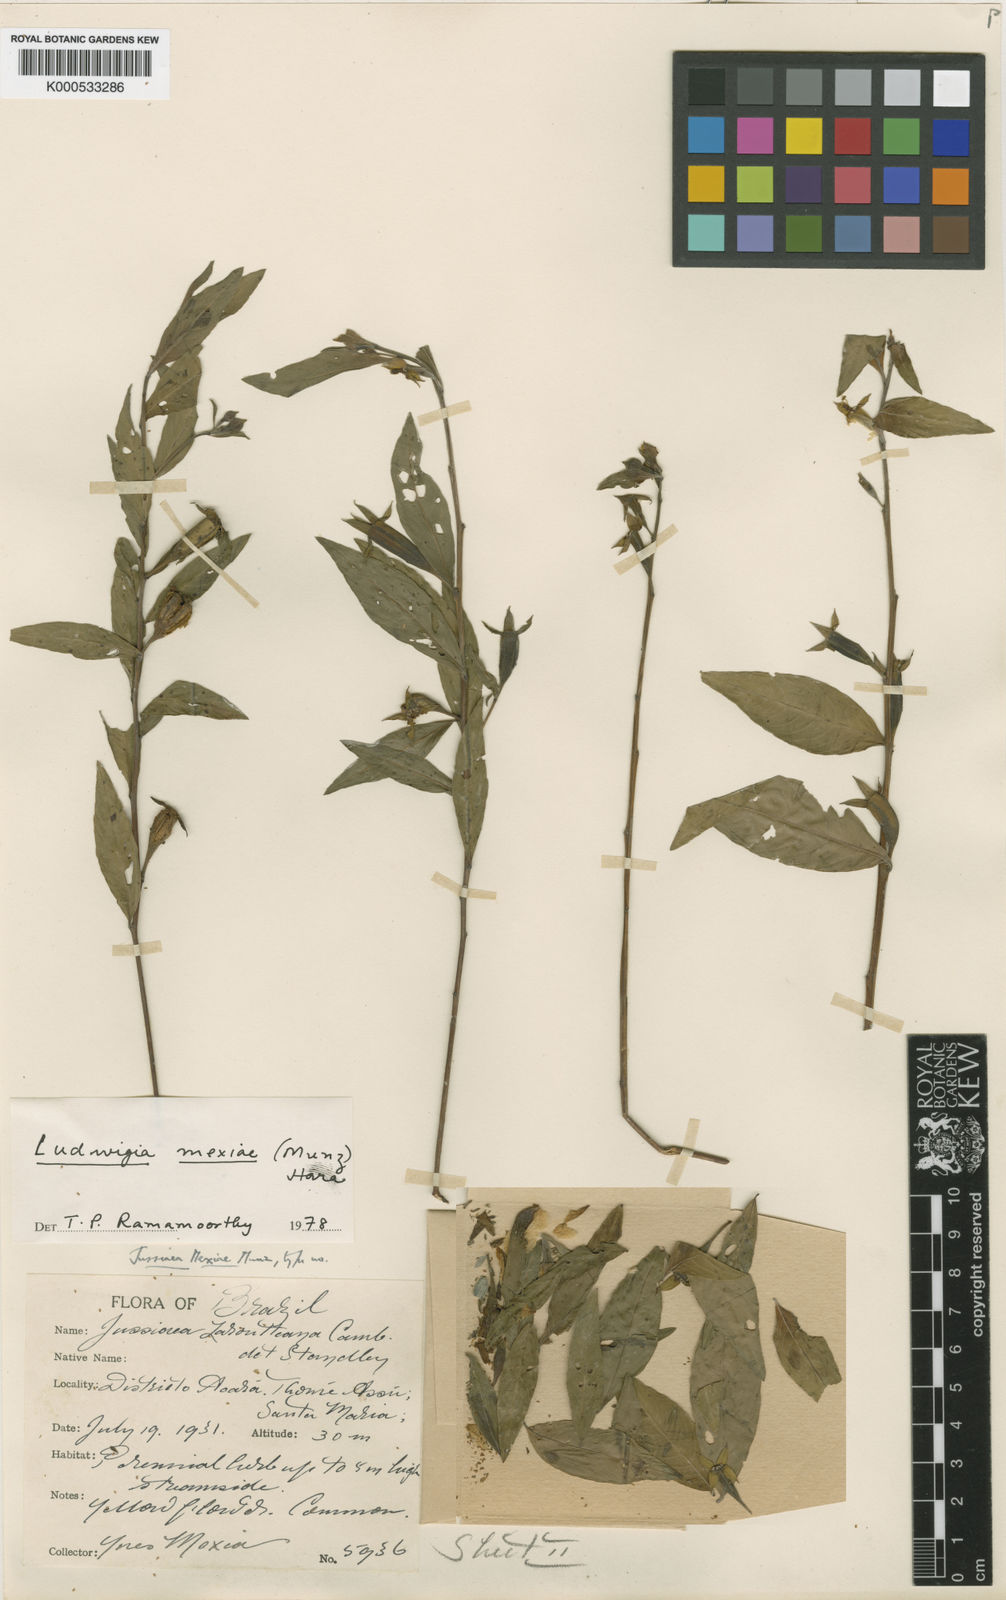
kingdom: Plantae
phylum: Tracheophyta
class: Magnoliopsida
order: Myrtales
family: Onagraceae
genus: Ludwigia
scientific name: Ludwigia mexiae
